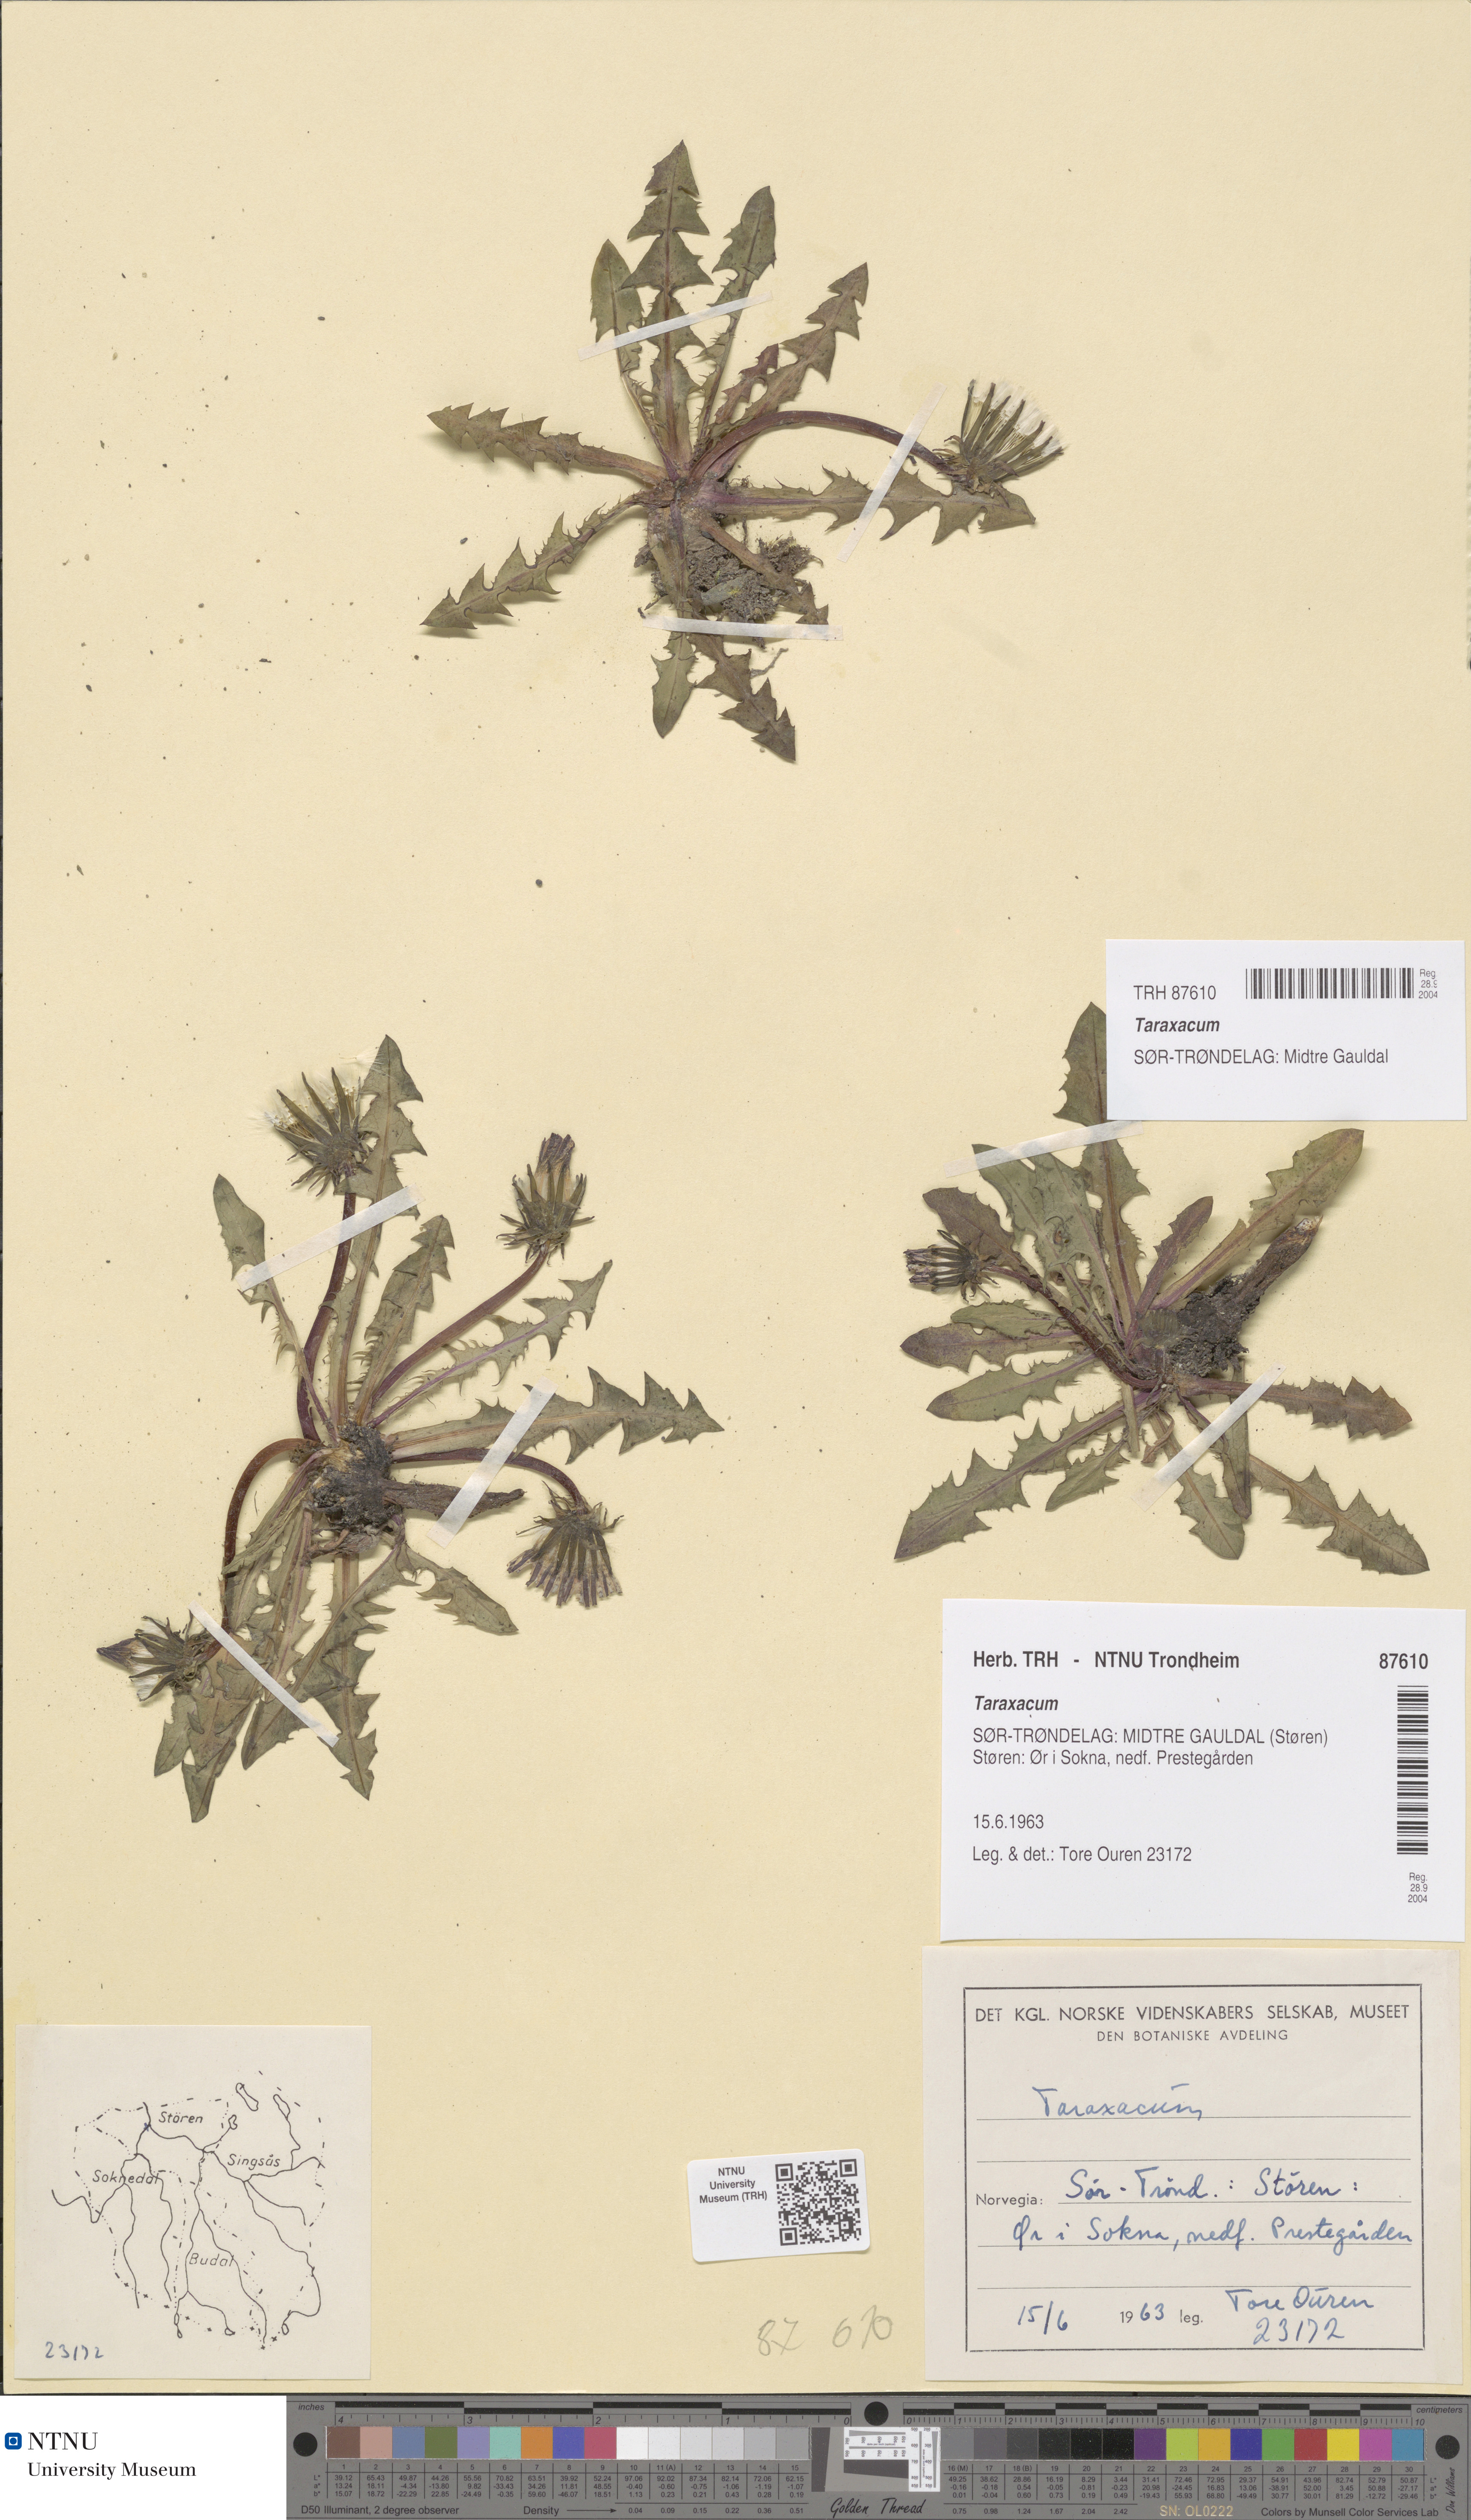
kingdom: Plantae
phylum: Tracheophyta
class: Magnoliopsida
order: Asterales
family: Asteraceae
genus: Taraxacum
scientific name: Taraxacum
